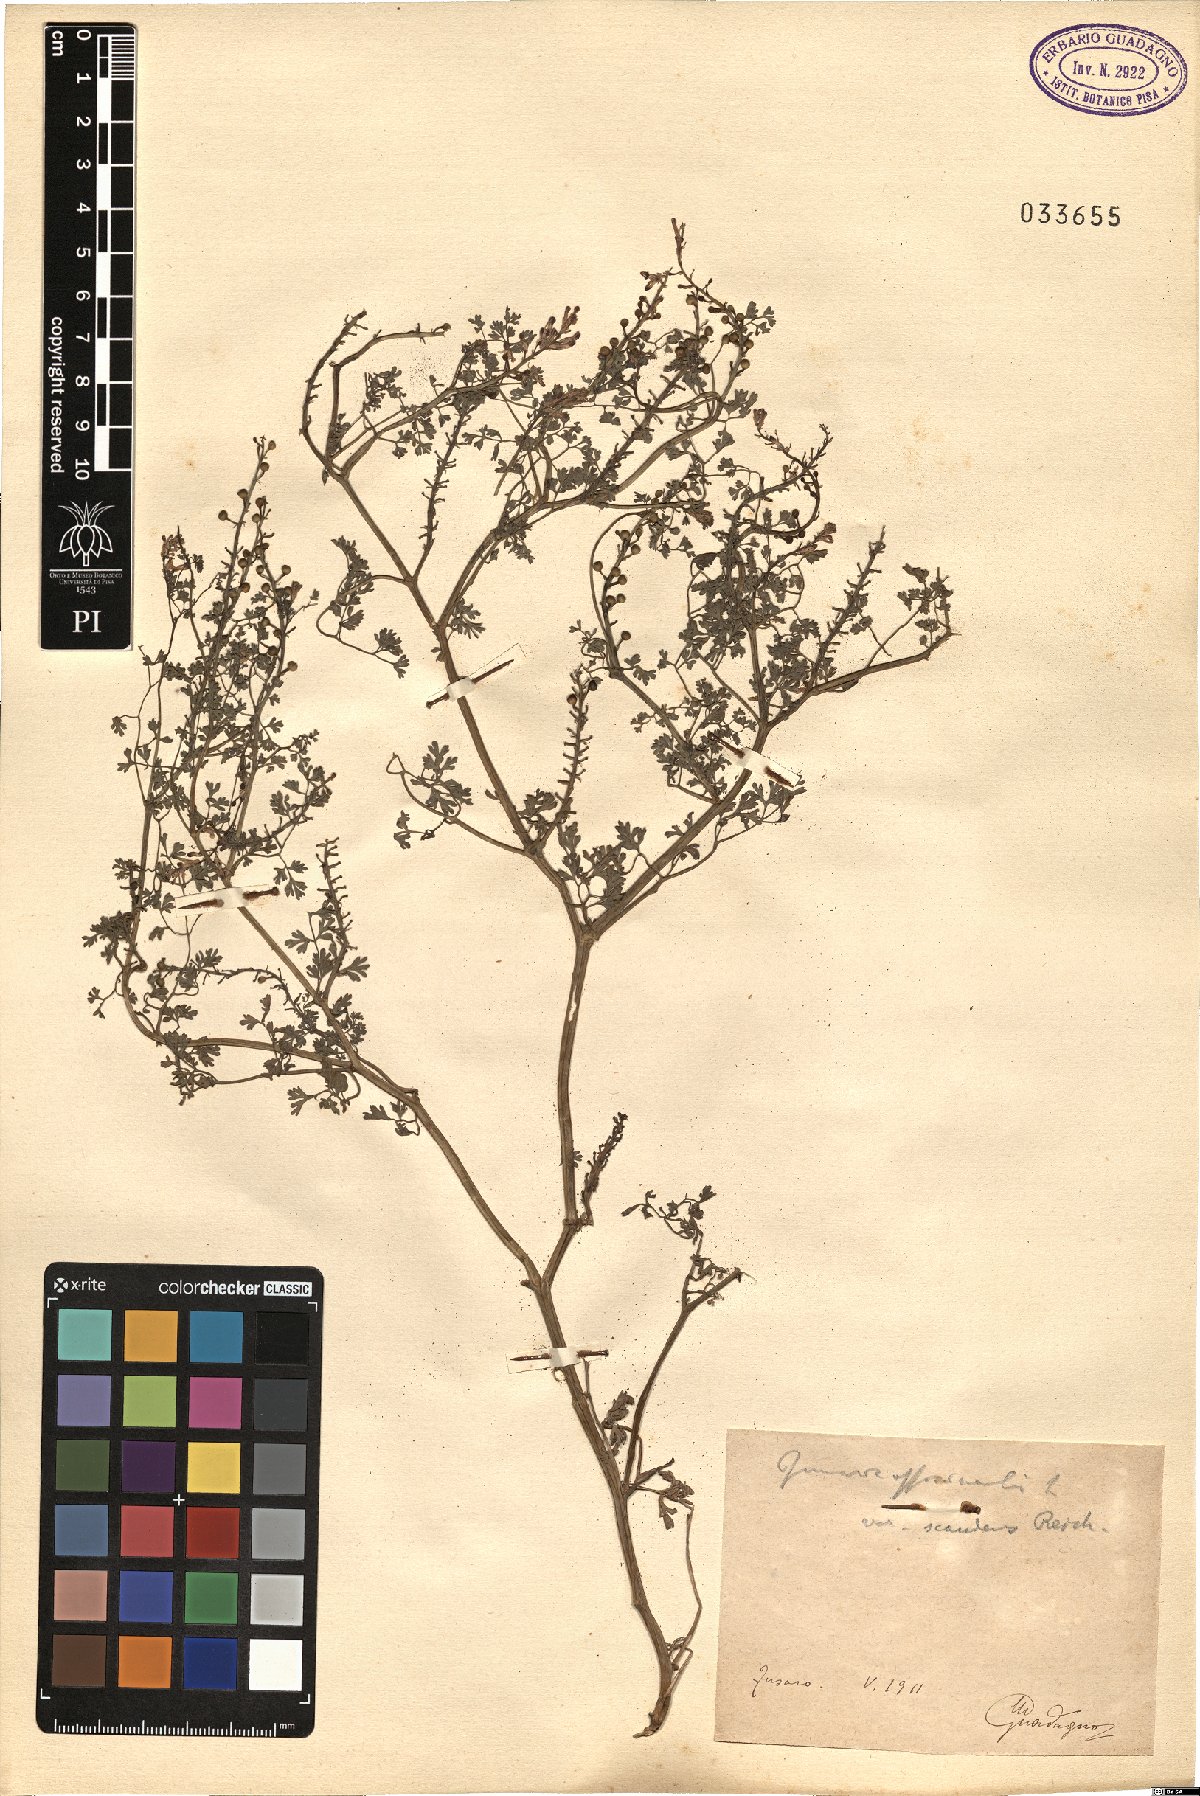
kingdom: Plantae
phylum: Tracheophyta
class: Magnoliopsida
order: Ranunculales
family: Papaveraceae
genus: Fumaria
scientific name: Fumaria officinalis
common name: Common fumitory
